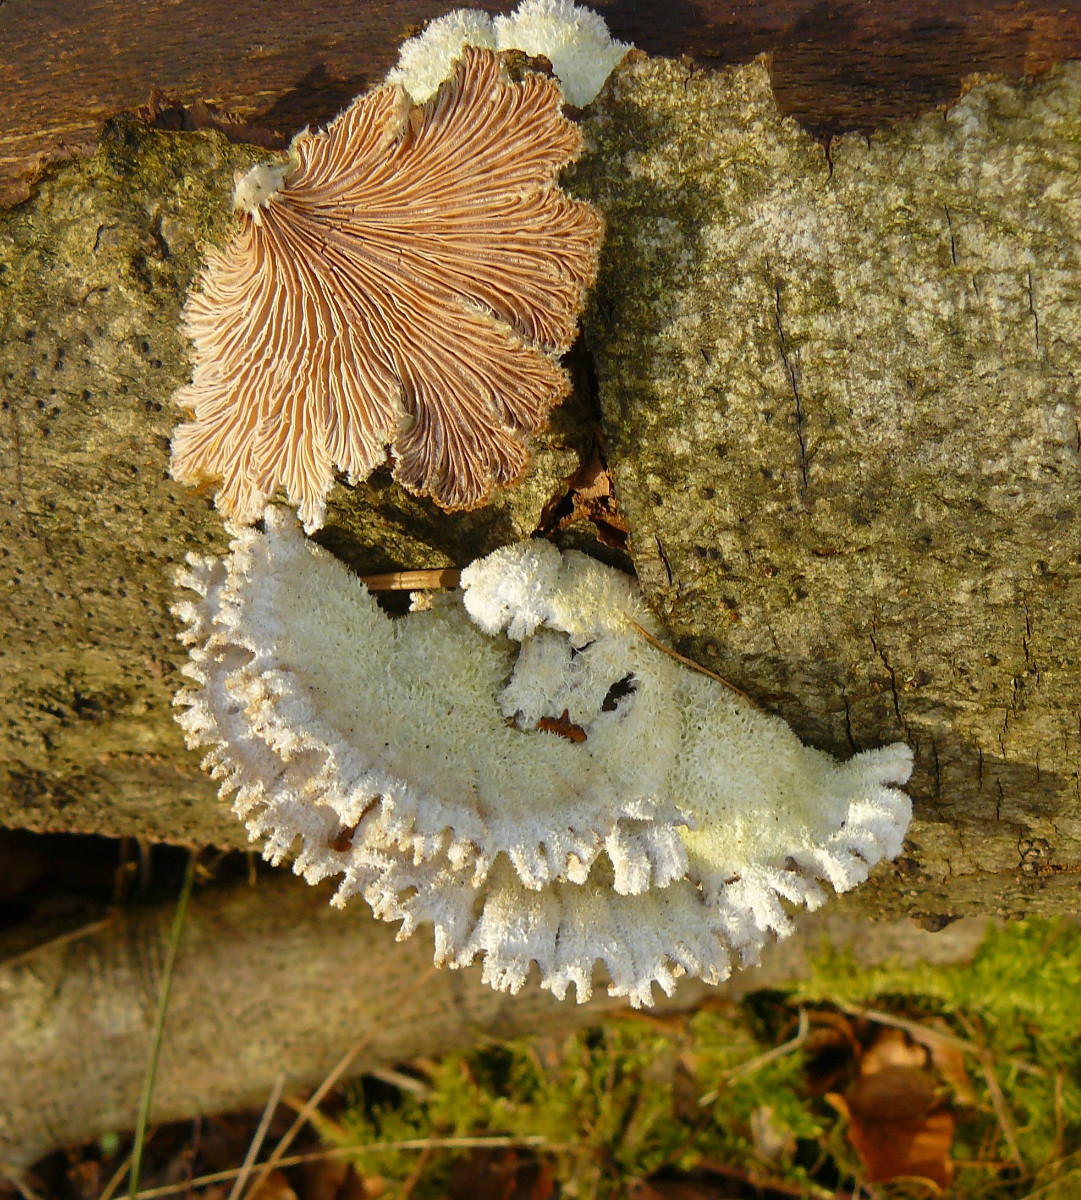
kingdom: Fungi
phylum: Basidiomycota
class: Agaricomycetes
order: Agaricales
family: Schizophyllaceae
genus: Schizophyllum
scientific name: Schizophyllum commune
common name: kløvblad
